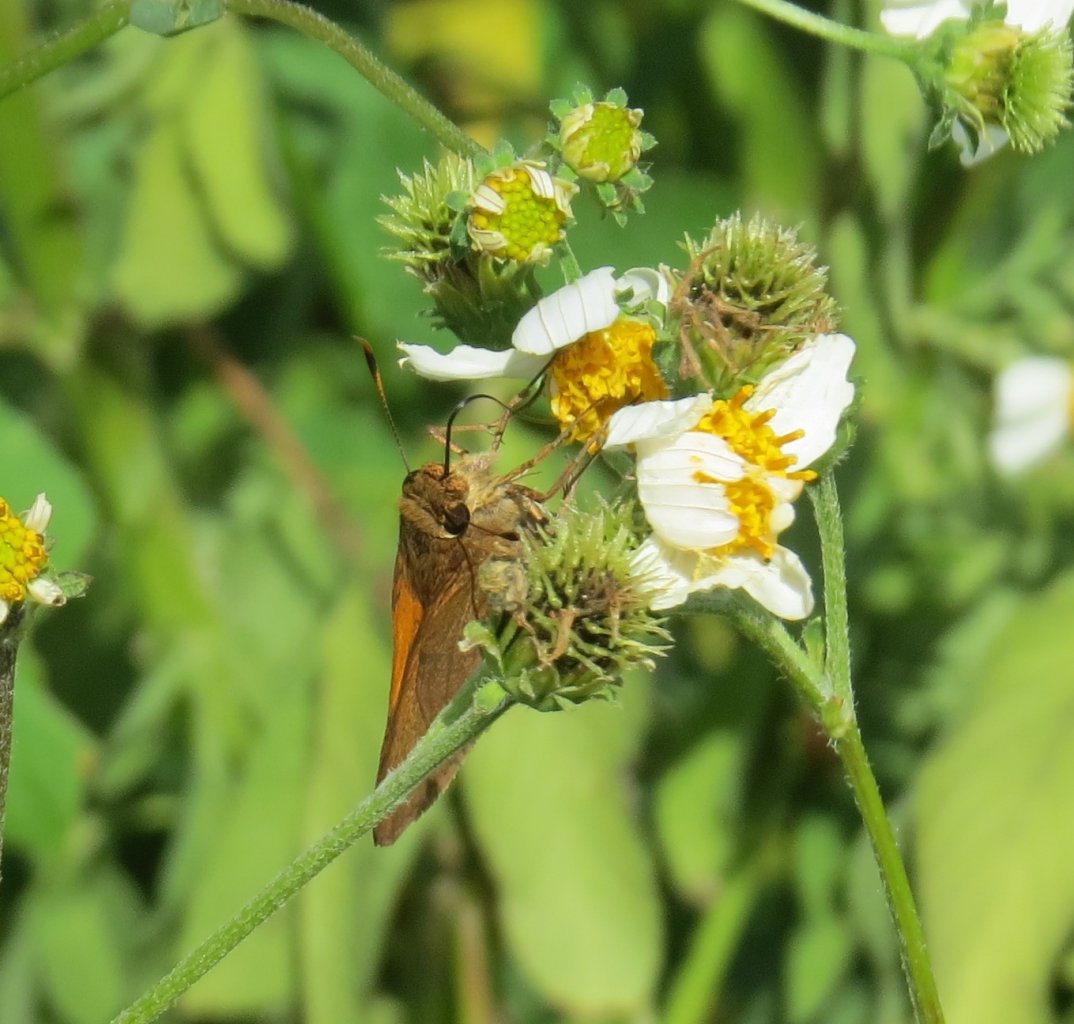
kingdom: Animalia
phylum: Arthropoda
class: Insecta
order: Lepidoptera
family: Hesperiidae
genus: Euphyes
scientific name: Euphyes pilatka
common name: Palatka Skipper
